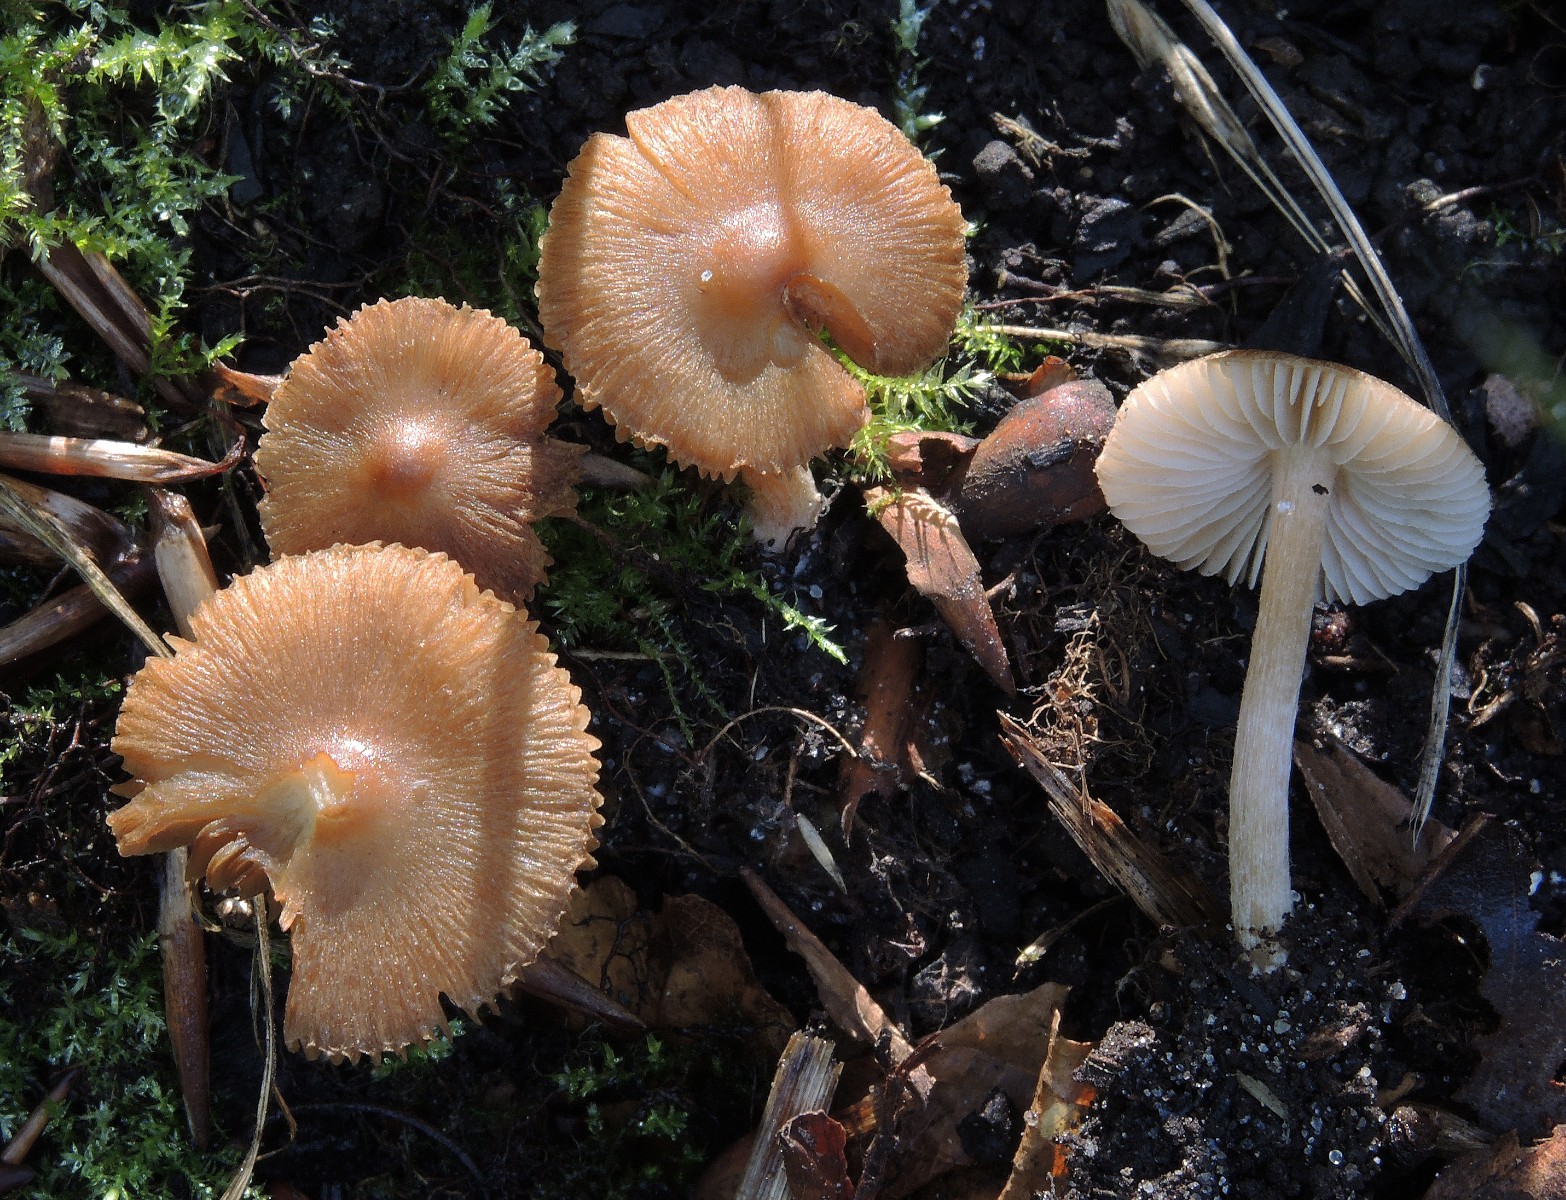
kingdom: Fungi
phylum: Basidiomycota
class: Agaricomycetes
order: Agaricales
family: Inocybaceae
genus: Inocybe
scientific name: Inocybe glabripes
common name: småsporet trævlhat
